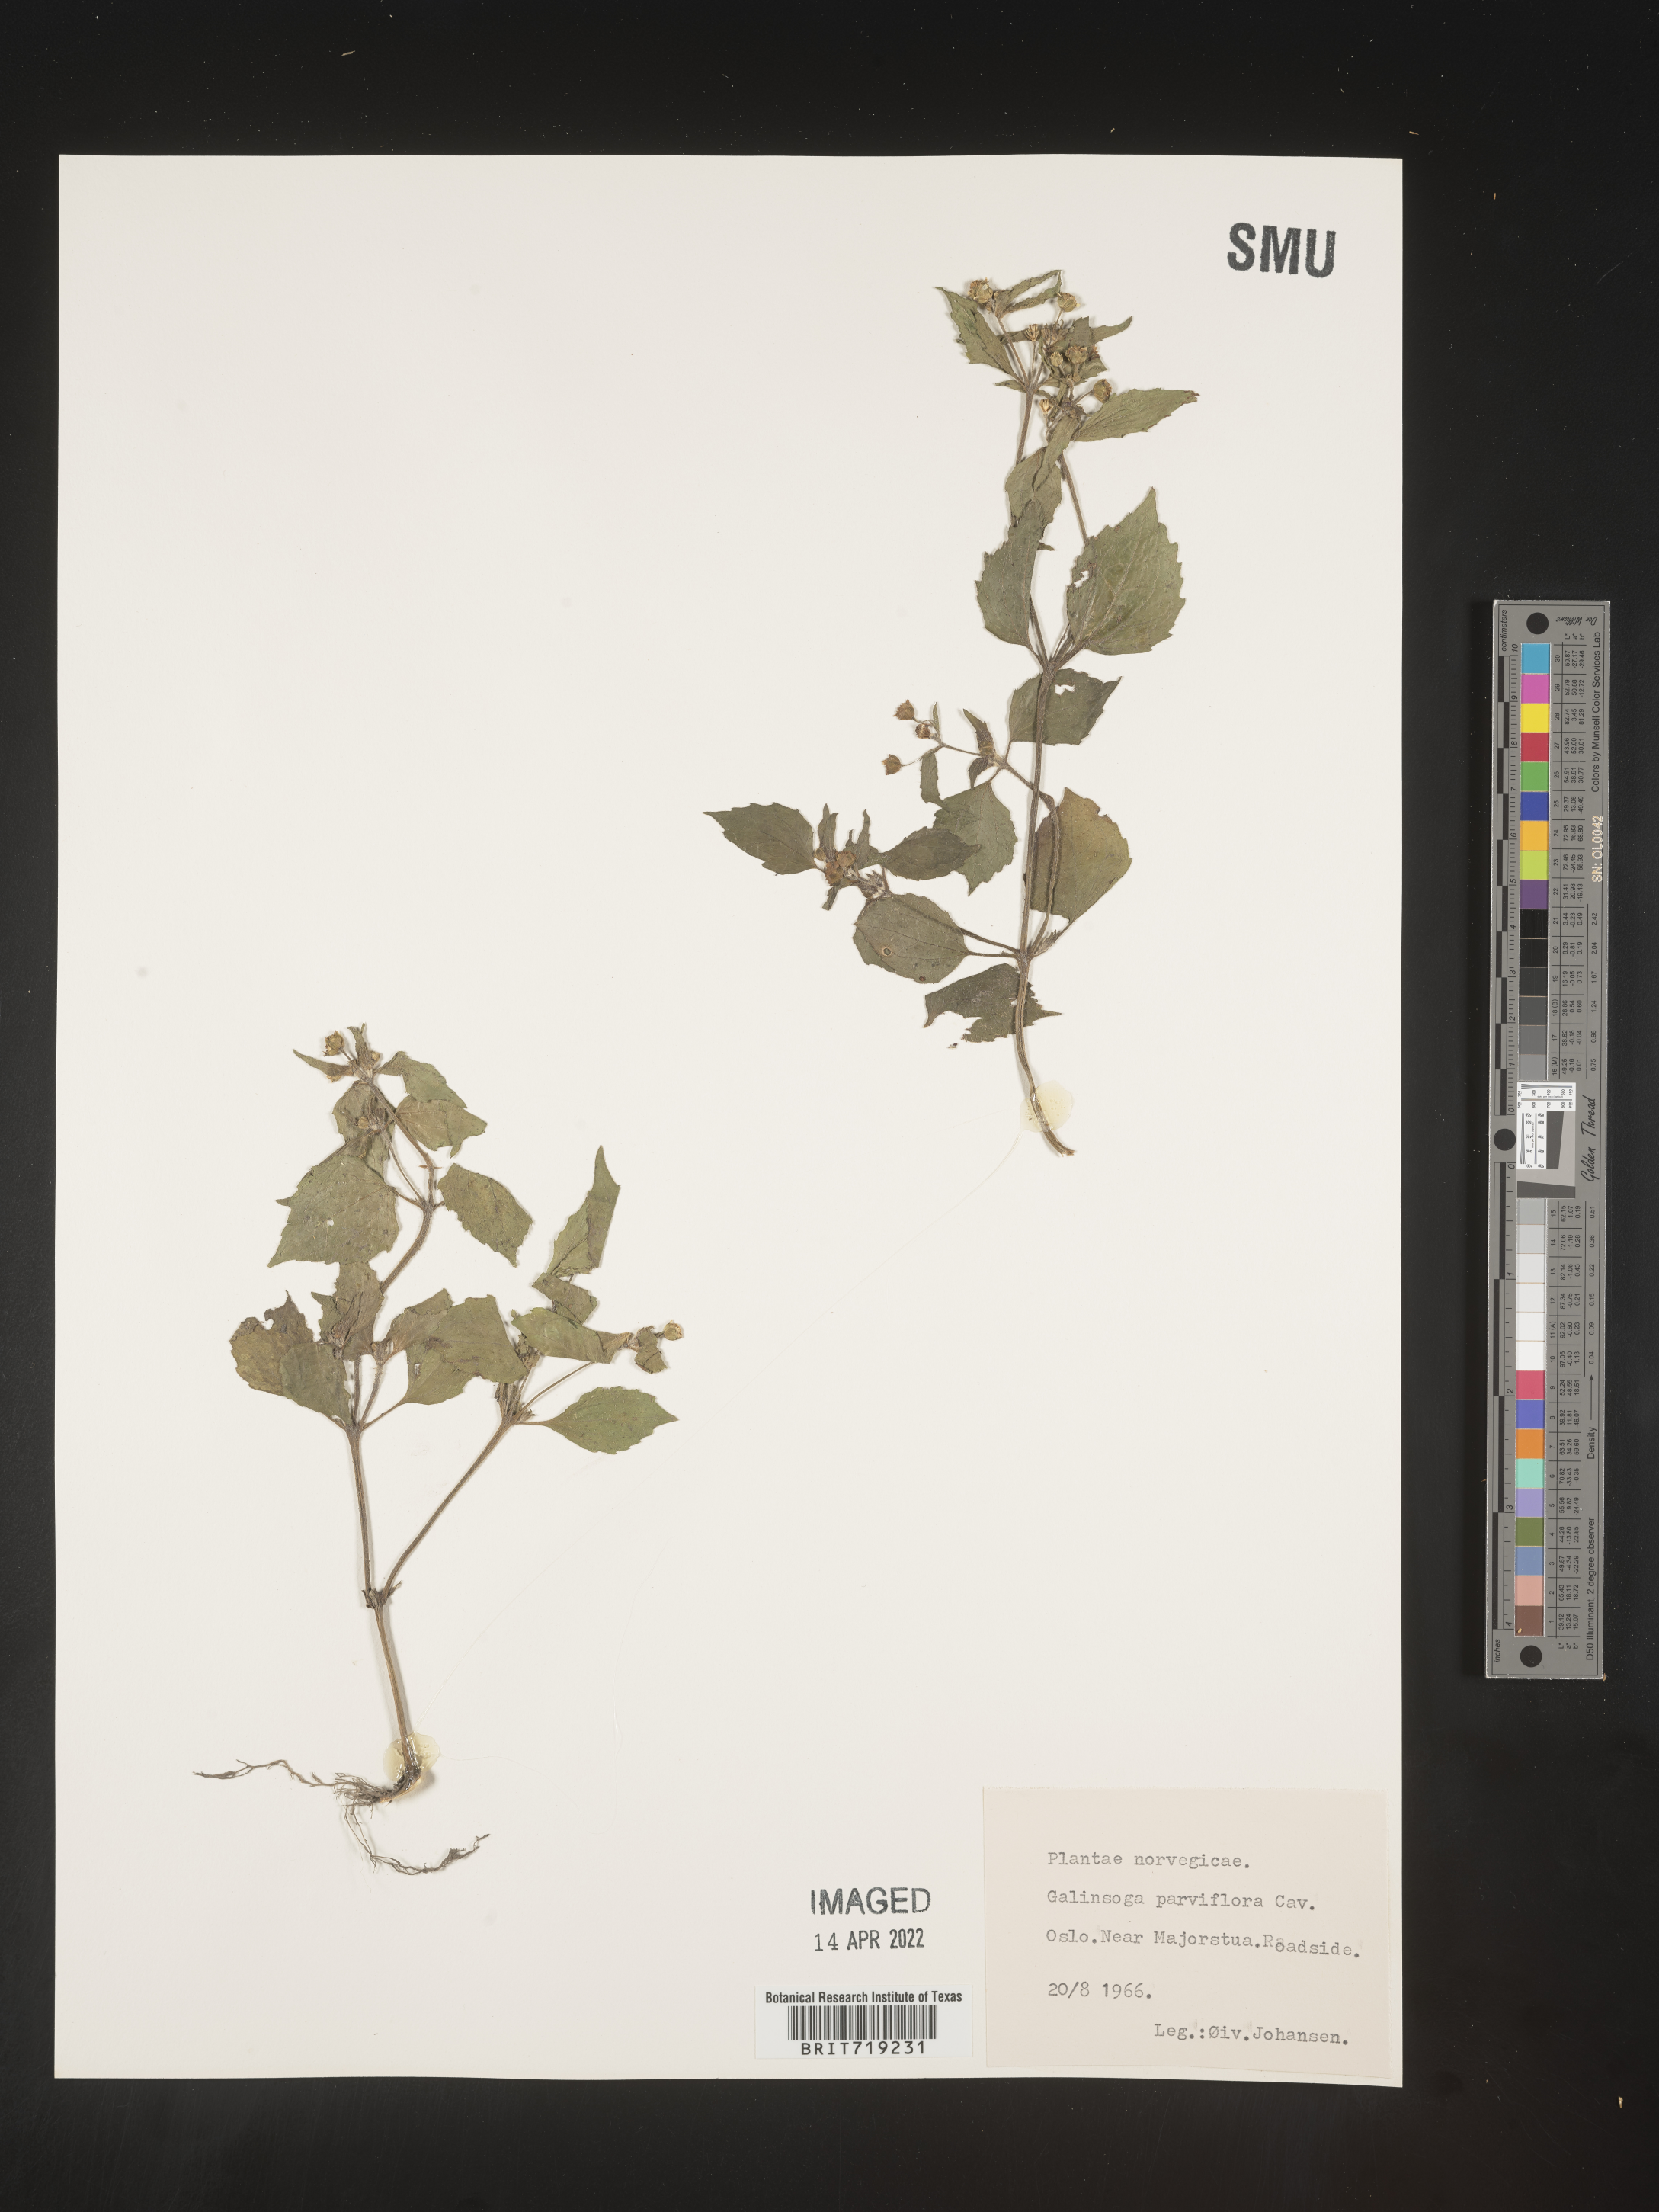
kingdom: Plantae
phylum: Tracheophyta
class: Magnoliopsida
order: Asterales
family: Asteraceae
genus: Galinsoga
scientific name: Galinsoga
